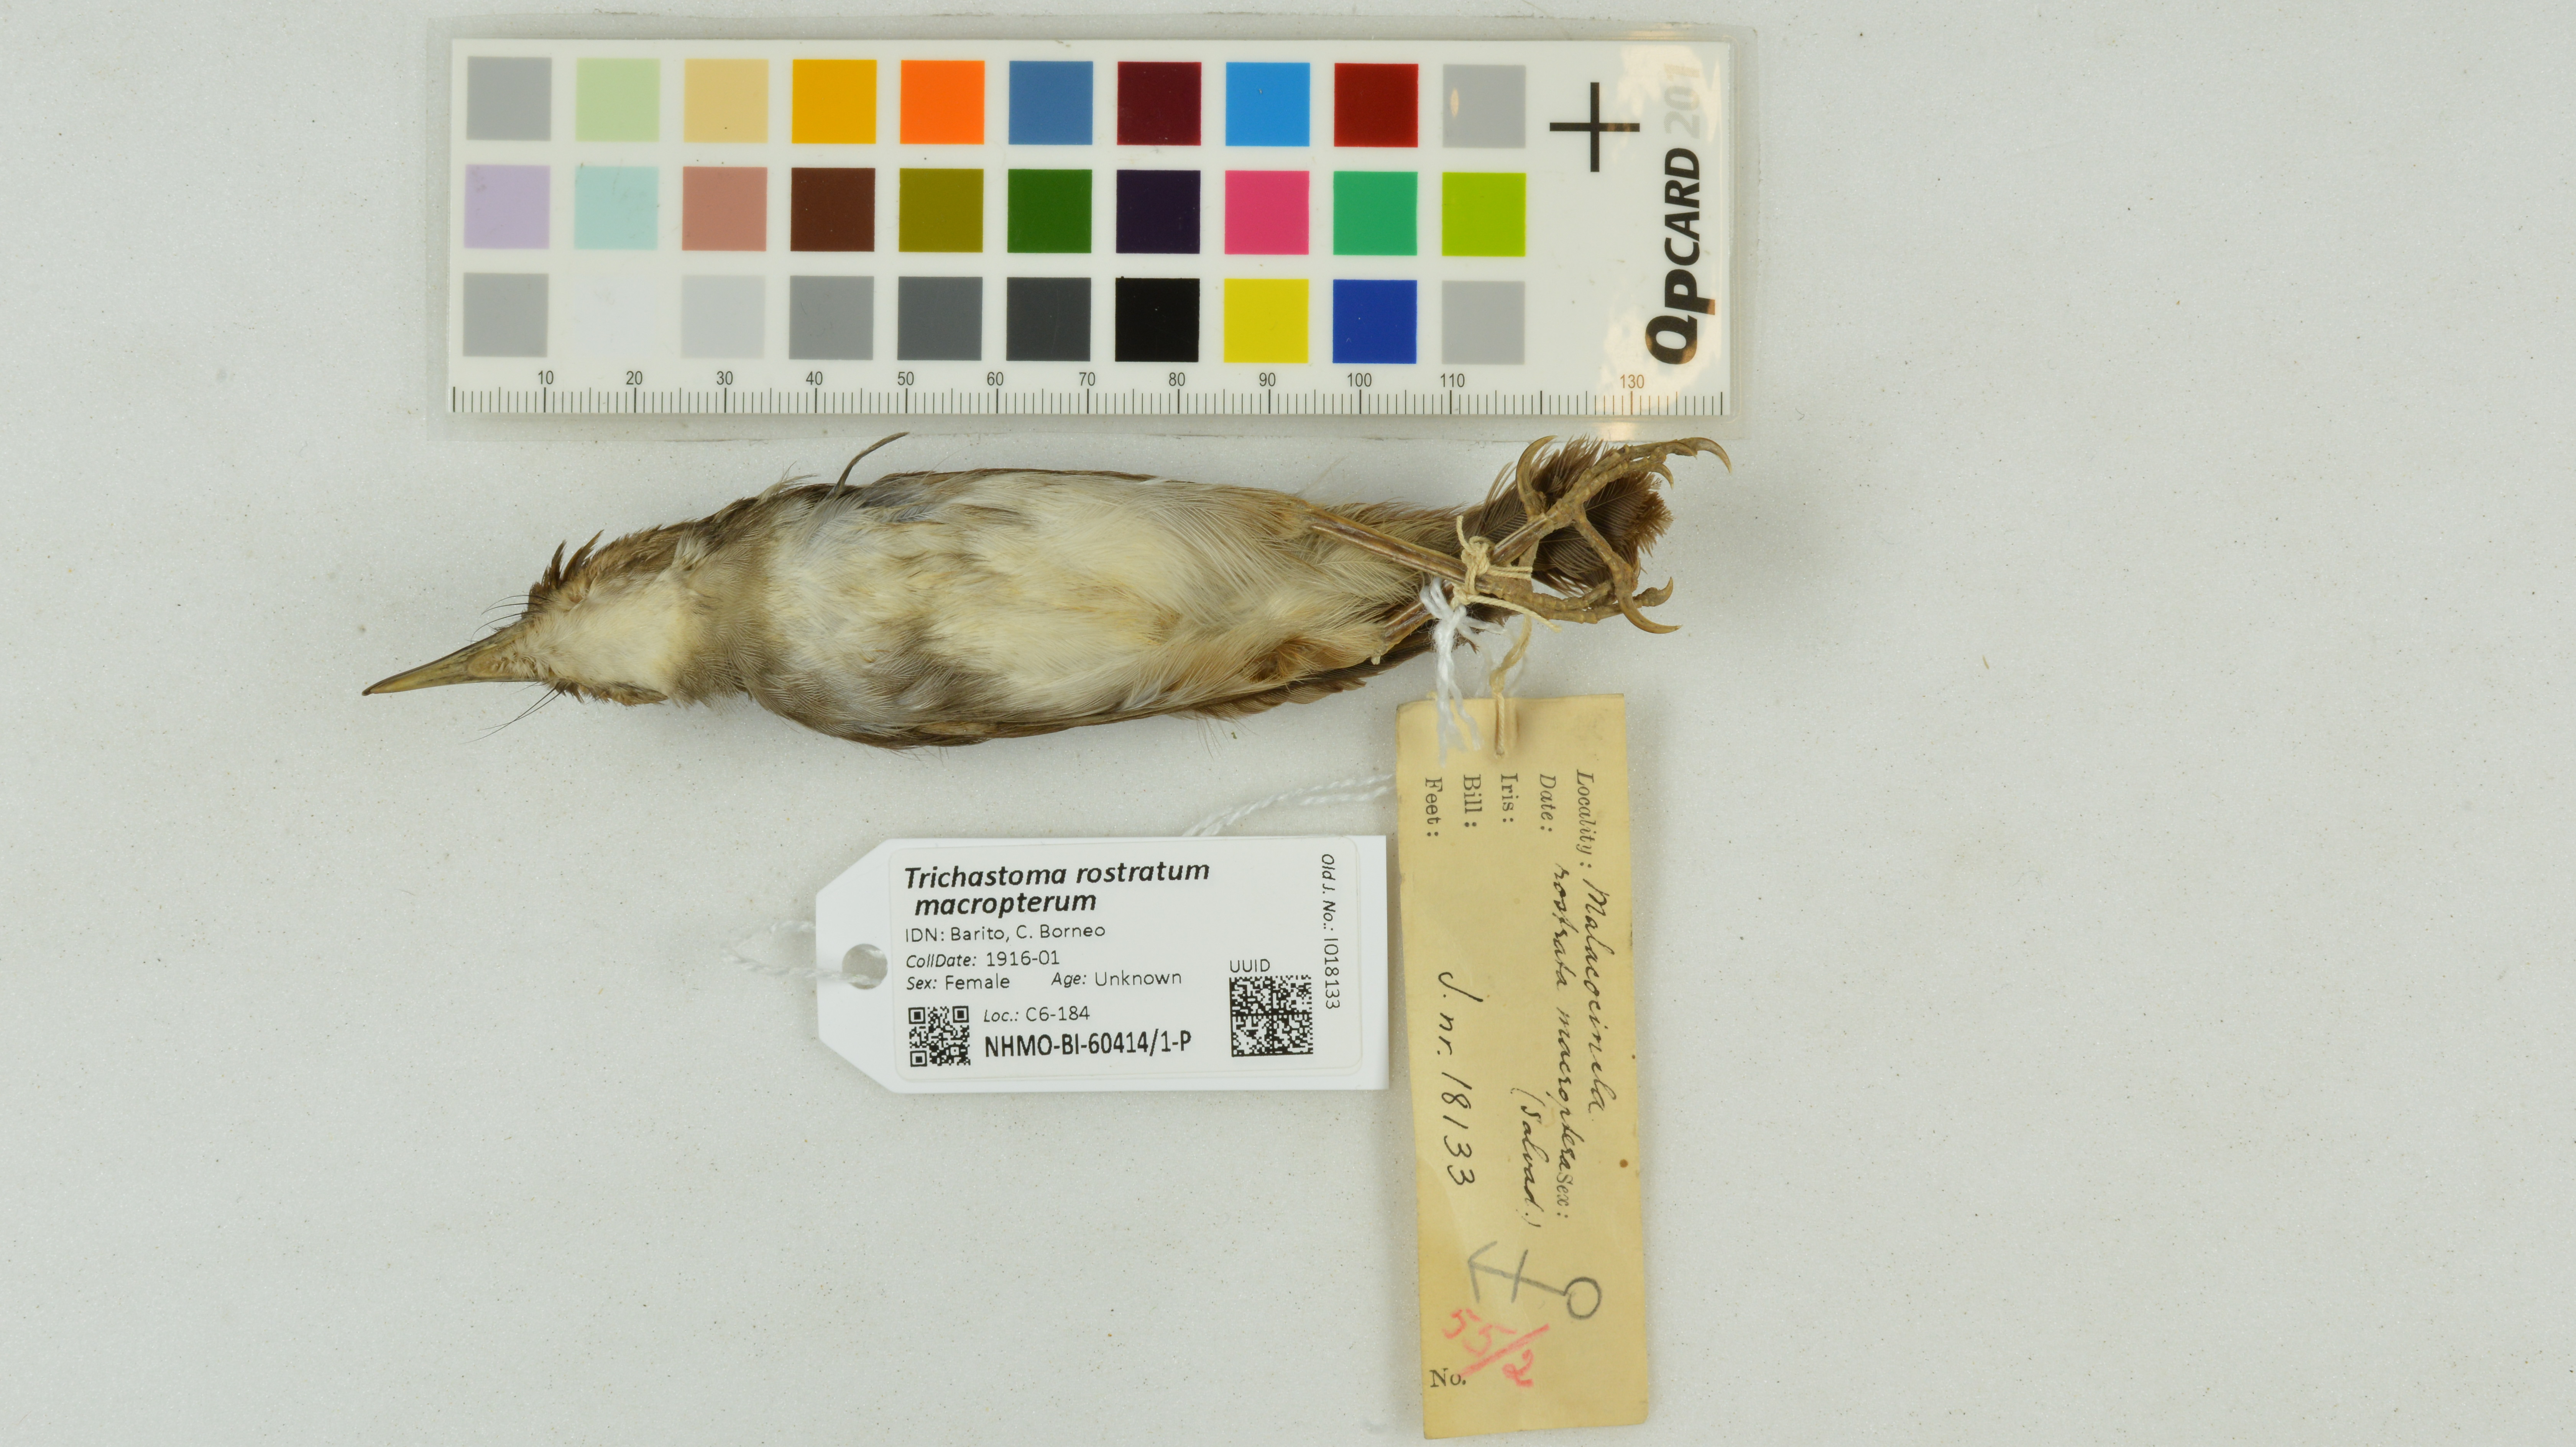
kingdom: Animalia
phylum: Chordata
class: Aves
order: Passeriformes
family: Pellorneidae
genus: Trichastoma
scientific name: Trichastoma rostratum
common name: White-chested babbler
